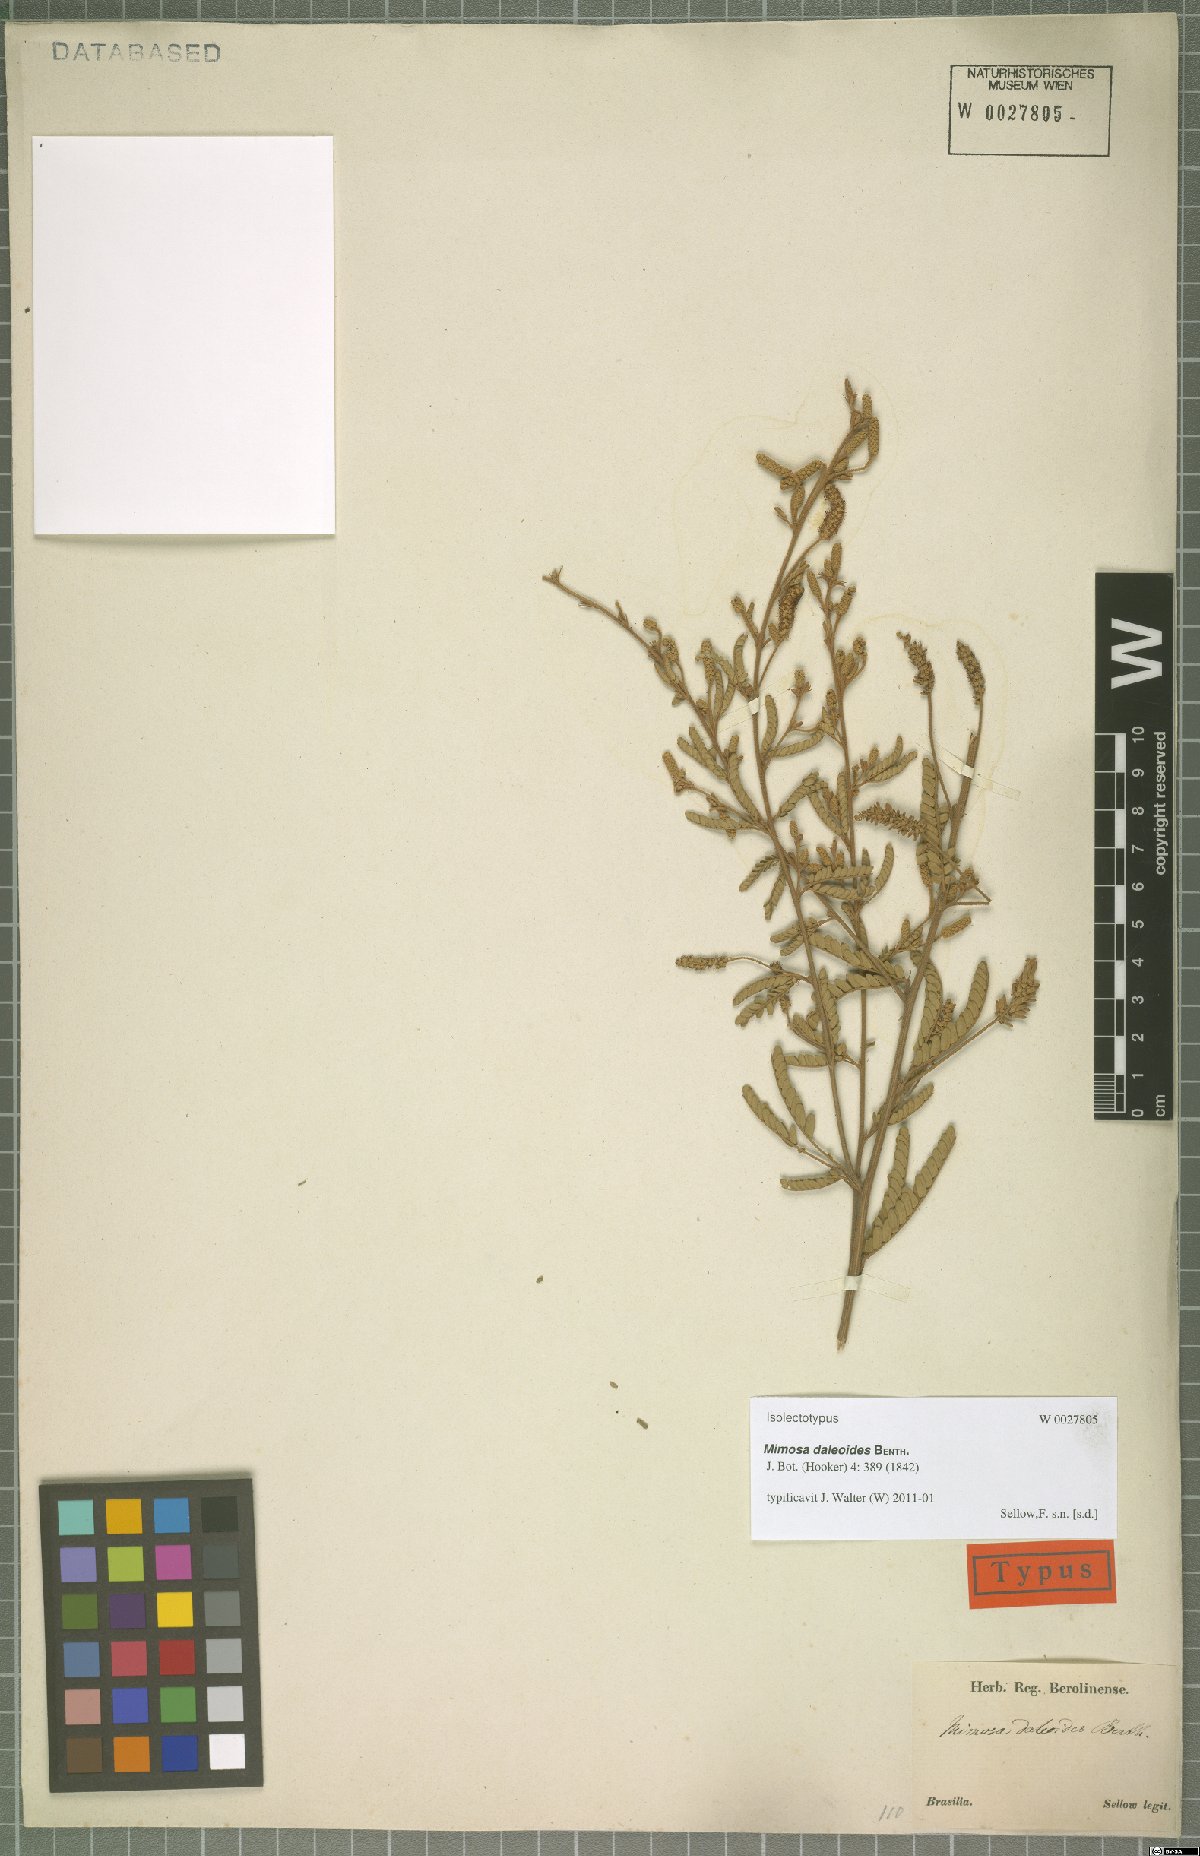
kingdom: Plantae
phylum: Tracheophyta
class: Magnoliopsida
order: Fabales
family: Fabaceae
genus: Mimosa
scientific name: Mimosa daleoides
